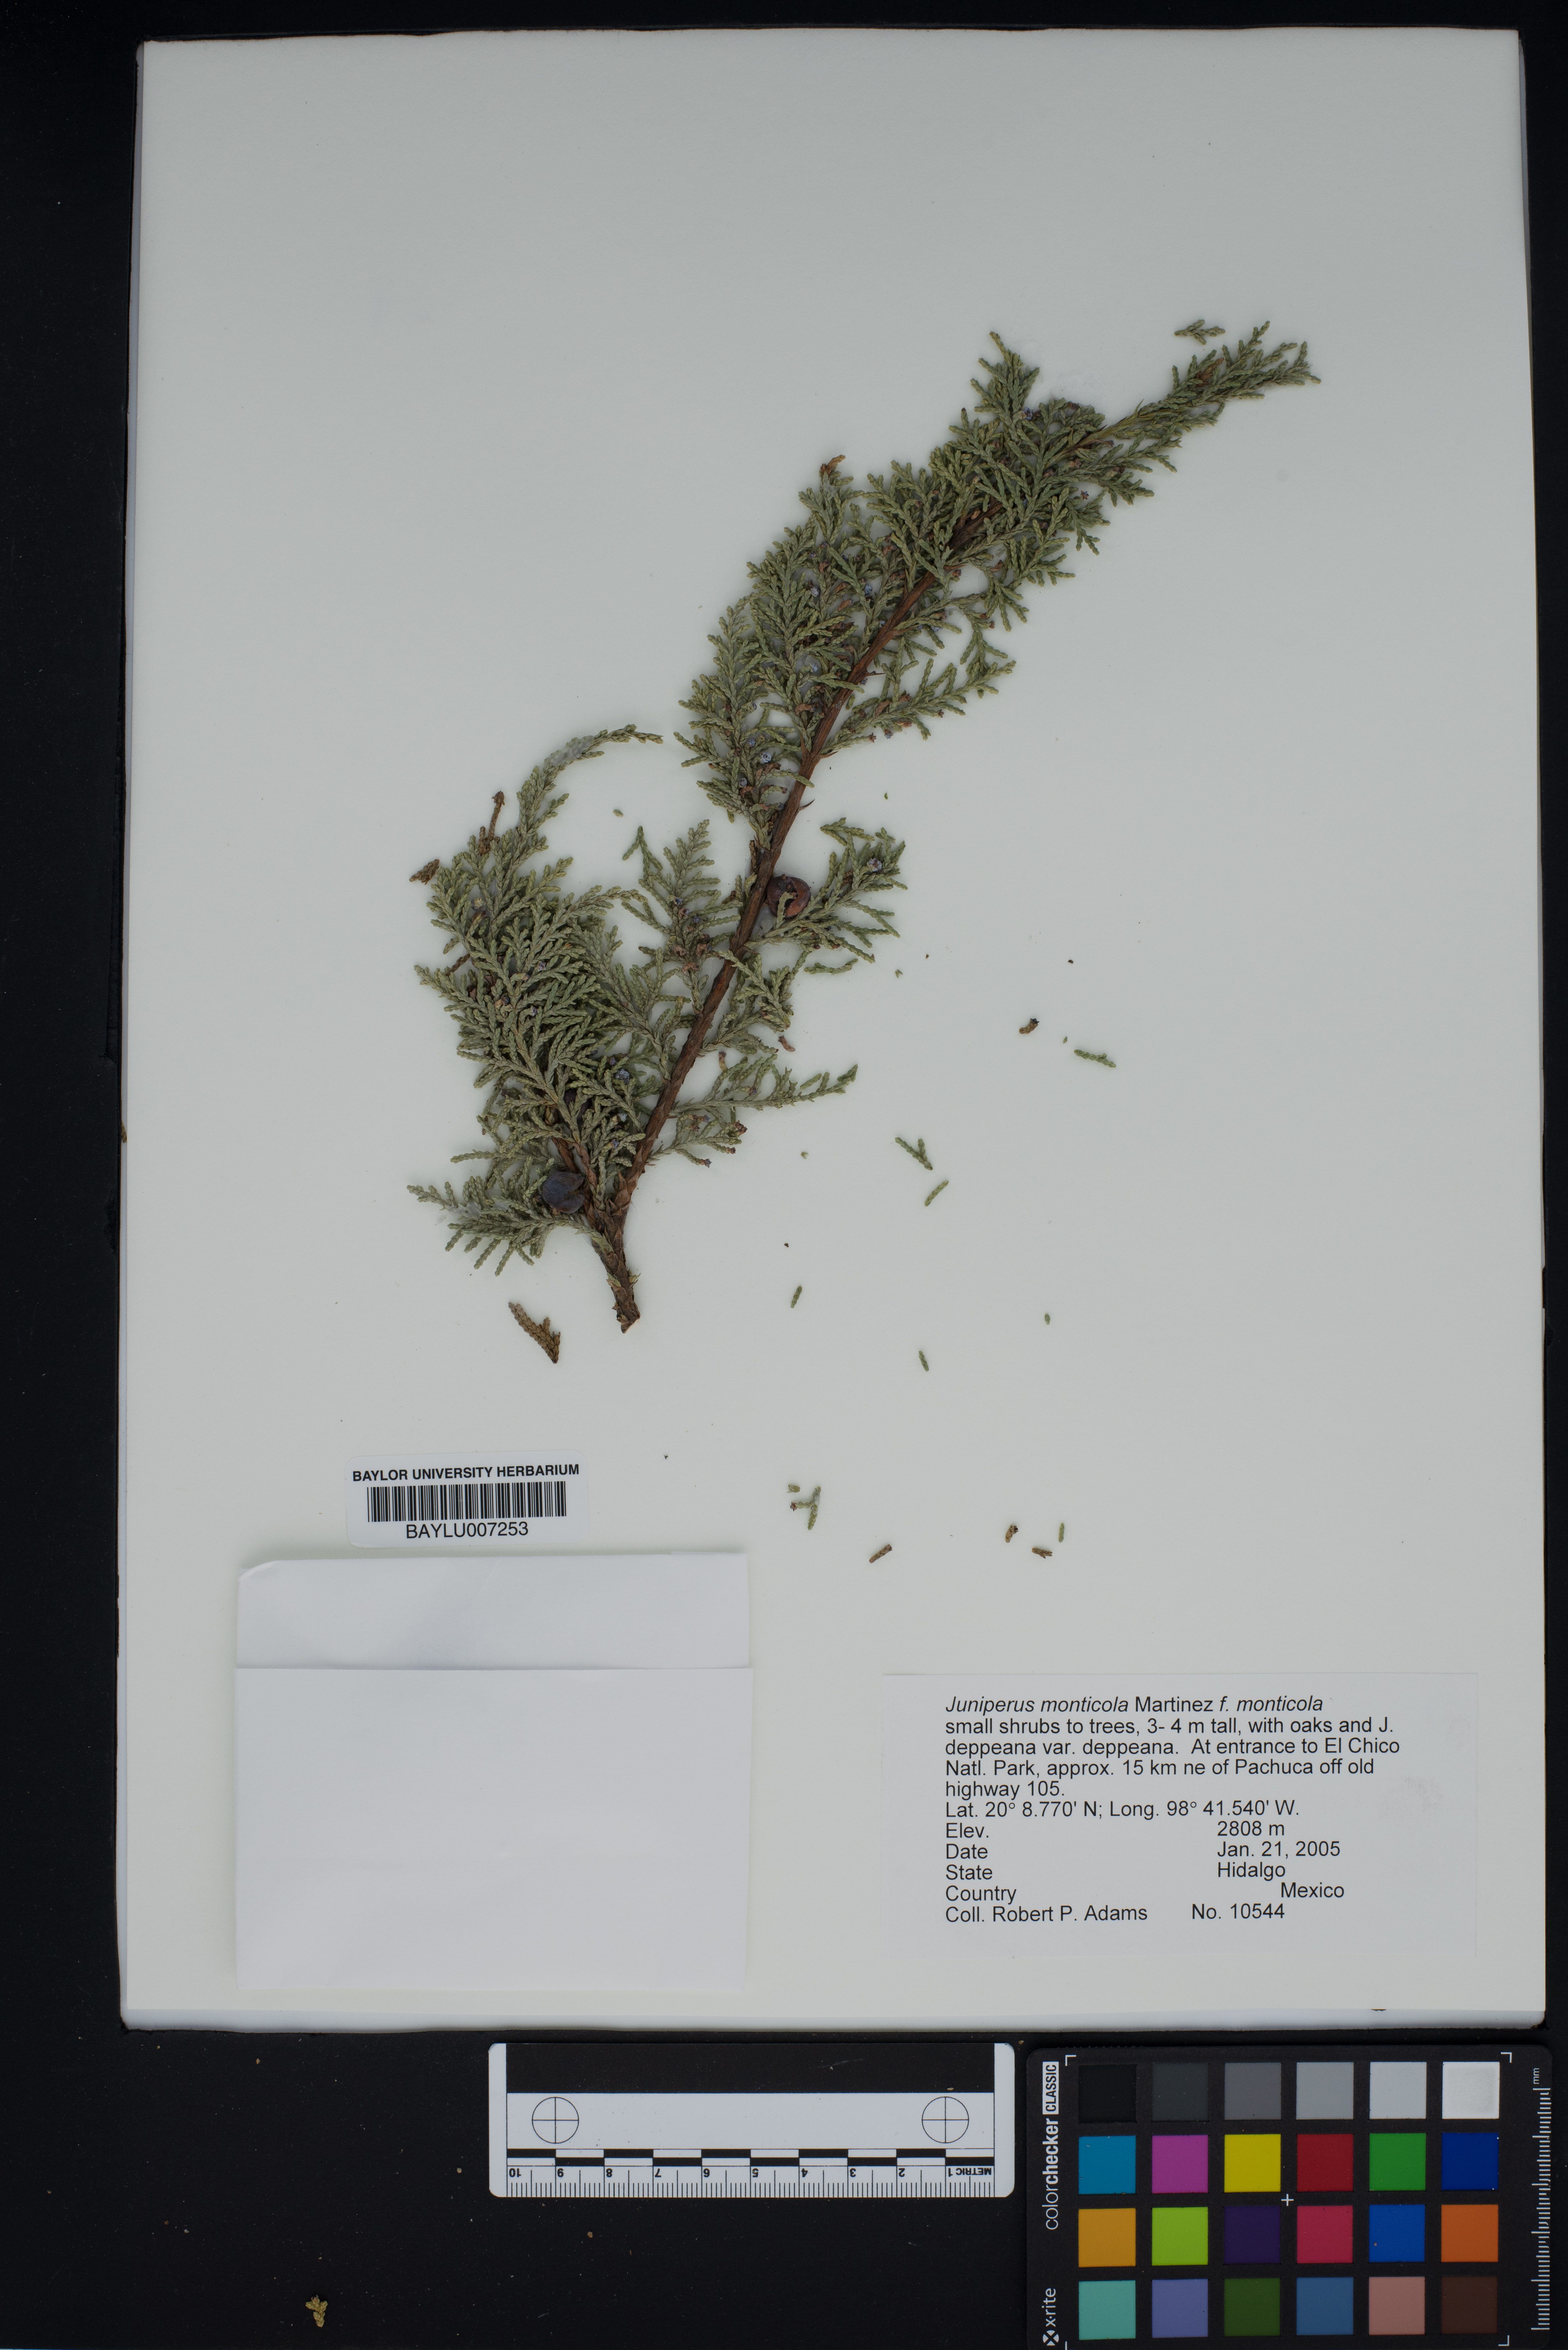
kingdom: Plantae
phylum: Tracheophyta
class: Pinopsida
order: Pinales
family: Cupressaceae
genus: Juniperus
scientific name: Juniperus monticola
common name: Mexican juniper
